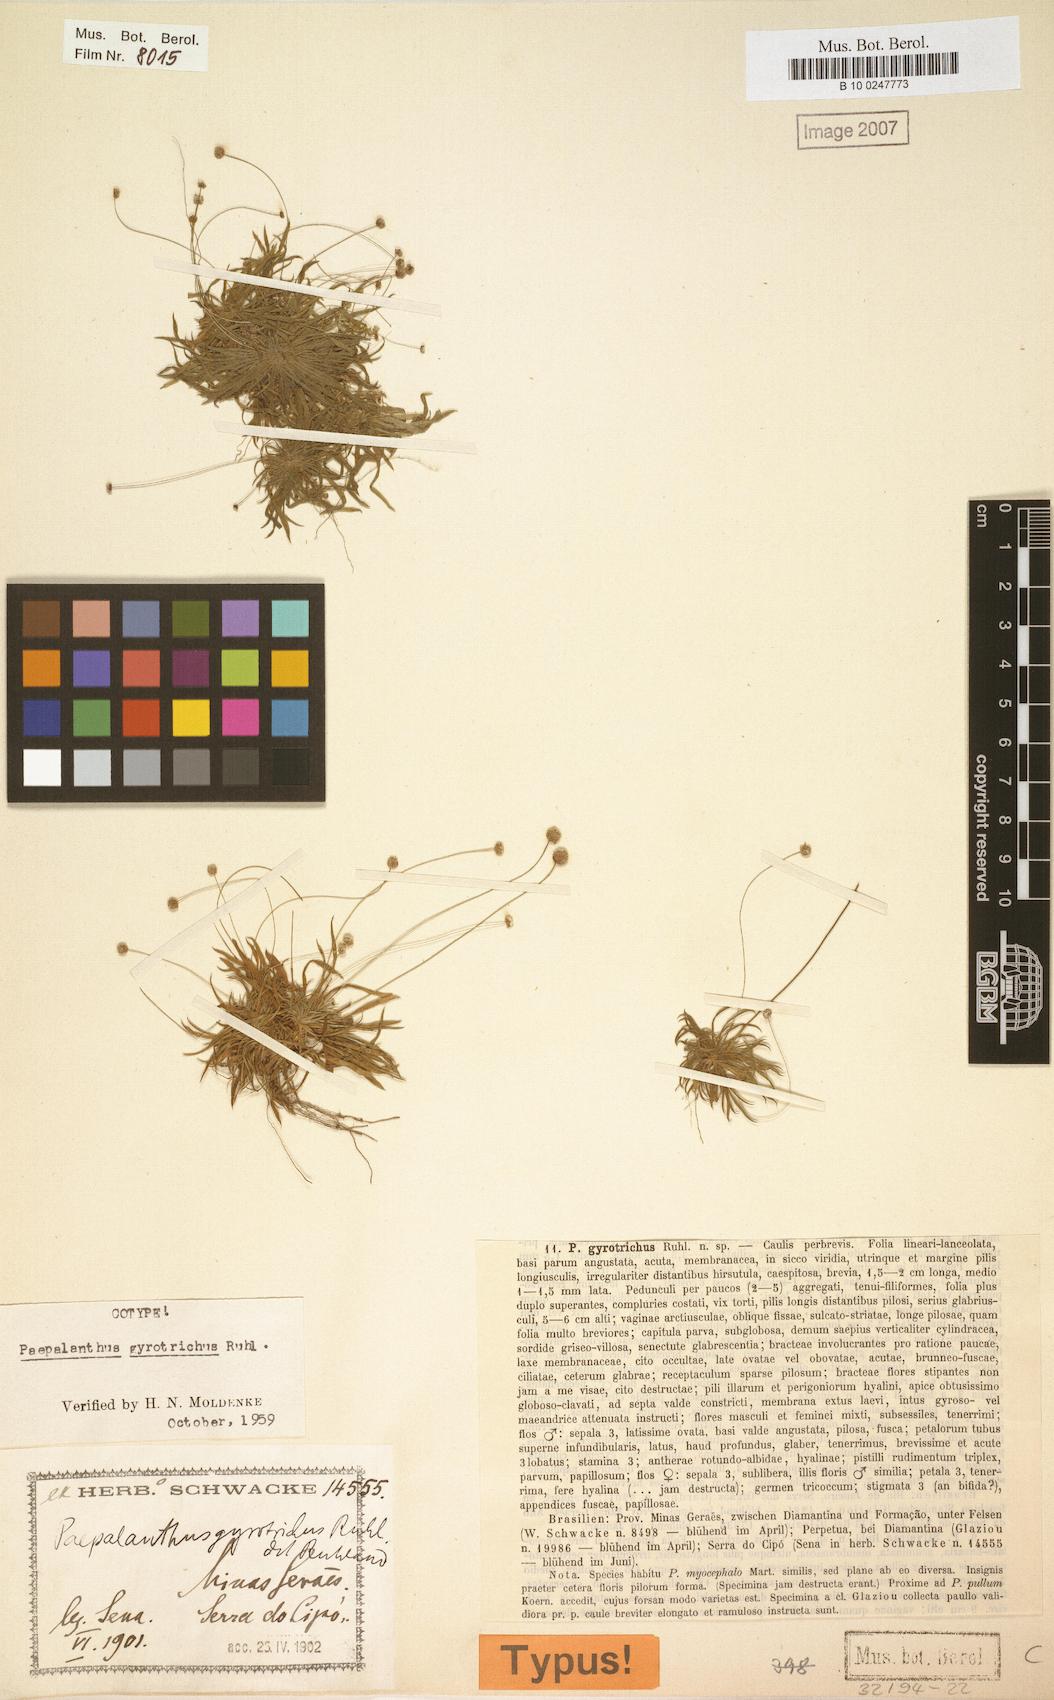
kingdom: Plantae
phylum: Tracheophyta
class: Liliopsida
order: Poales
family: Eriocaulaceae
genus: Paepalanthus
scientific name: Paepalanthus gyrotrichus
